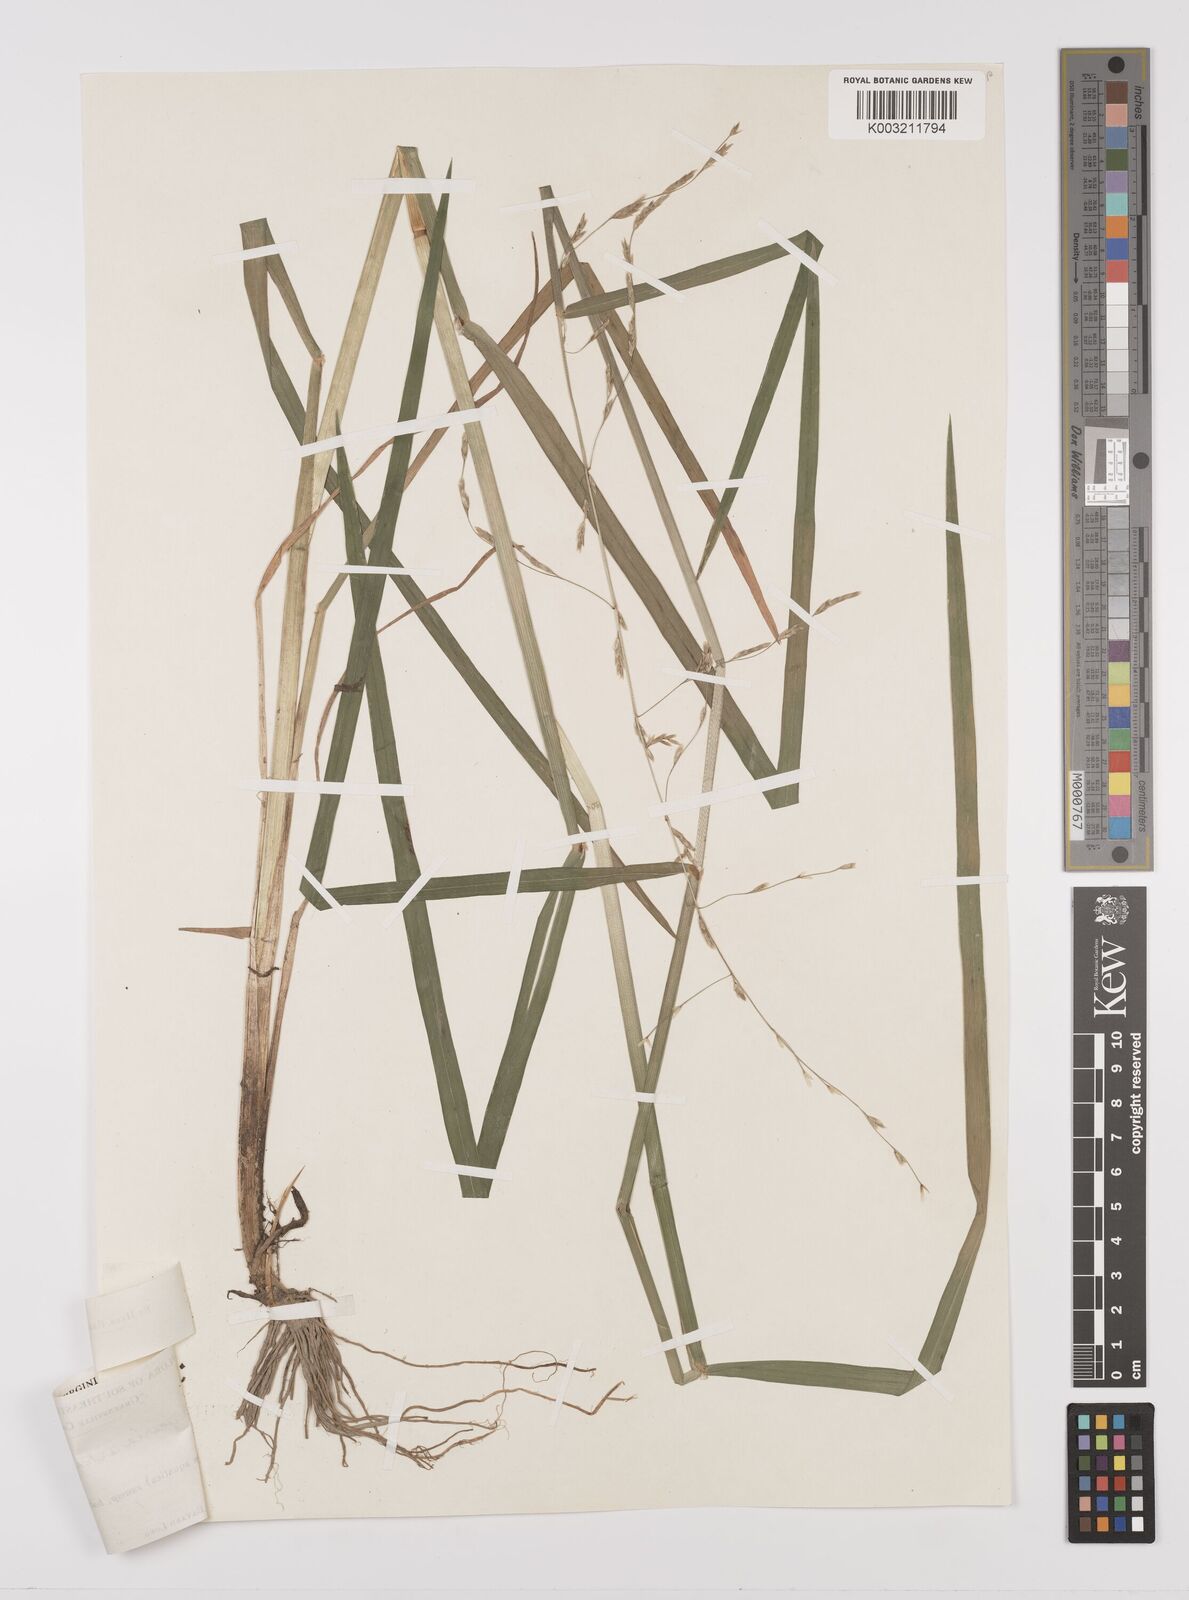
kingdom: Plantae
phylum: Tracheophyta
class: Liliopsida
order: Poales
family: Poaceae
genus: Glyceria
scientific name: Glyceria arkansana
